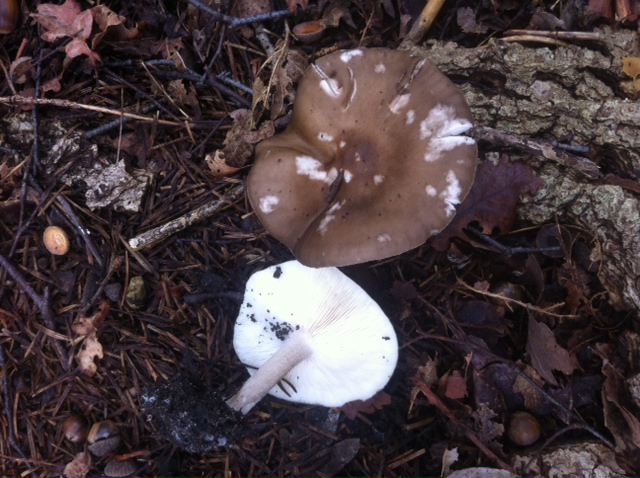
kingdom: Fungi
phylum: Basidiomycota
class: Agaricomycetes
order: Agaricales
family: Tricholomataceae
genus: Melanoleuca
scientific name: Melanoleuca polioleuca
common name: almindelig munkehat
